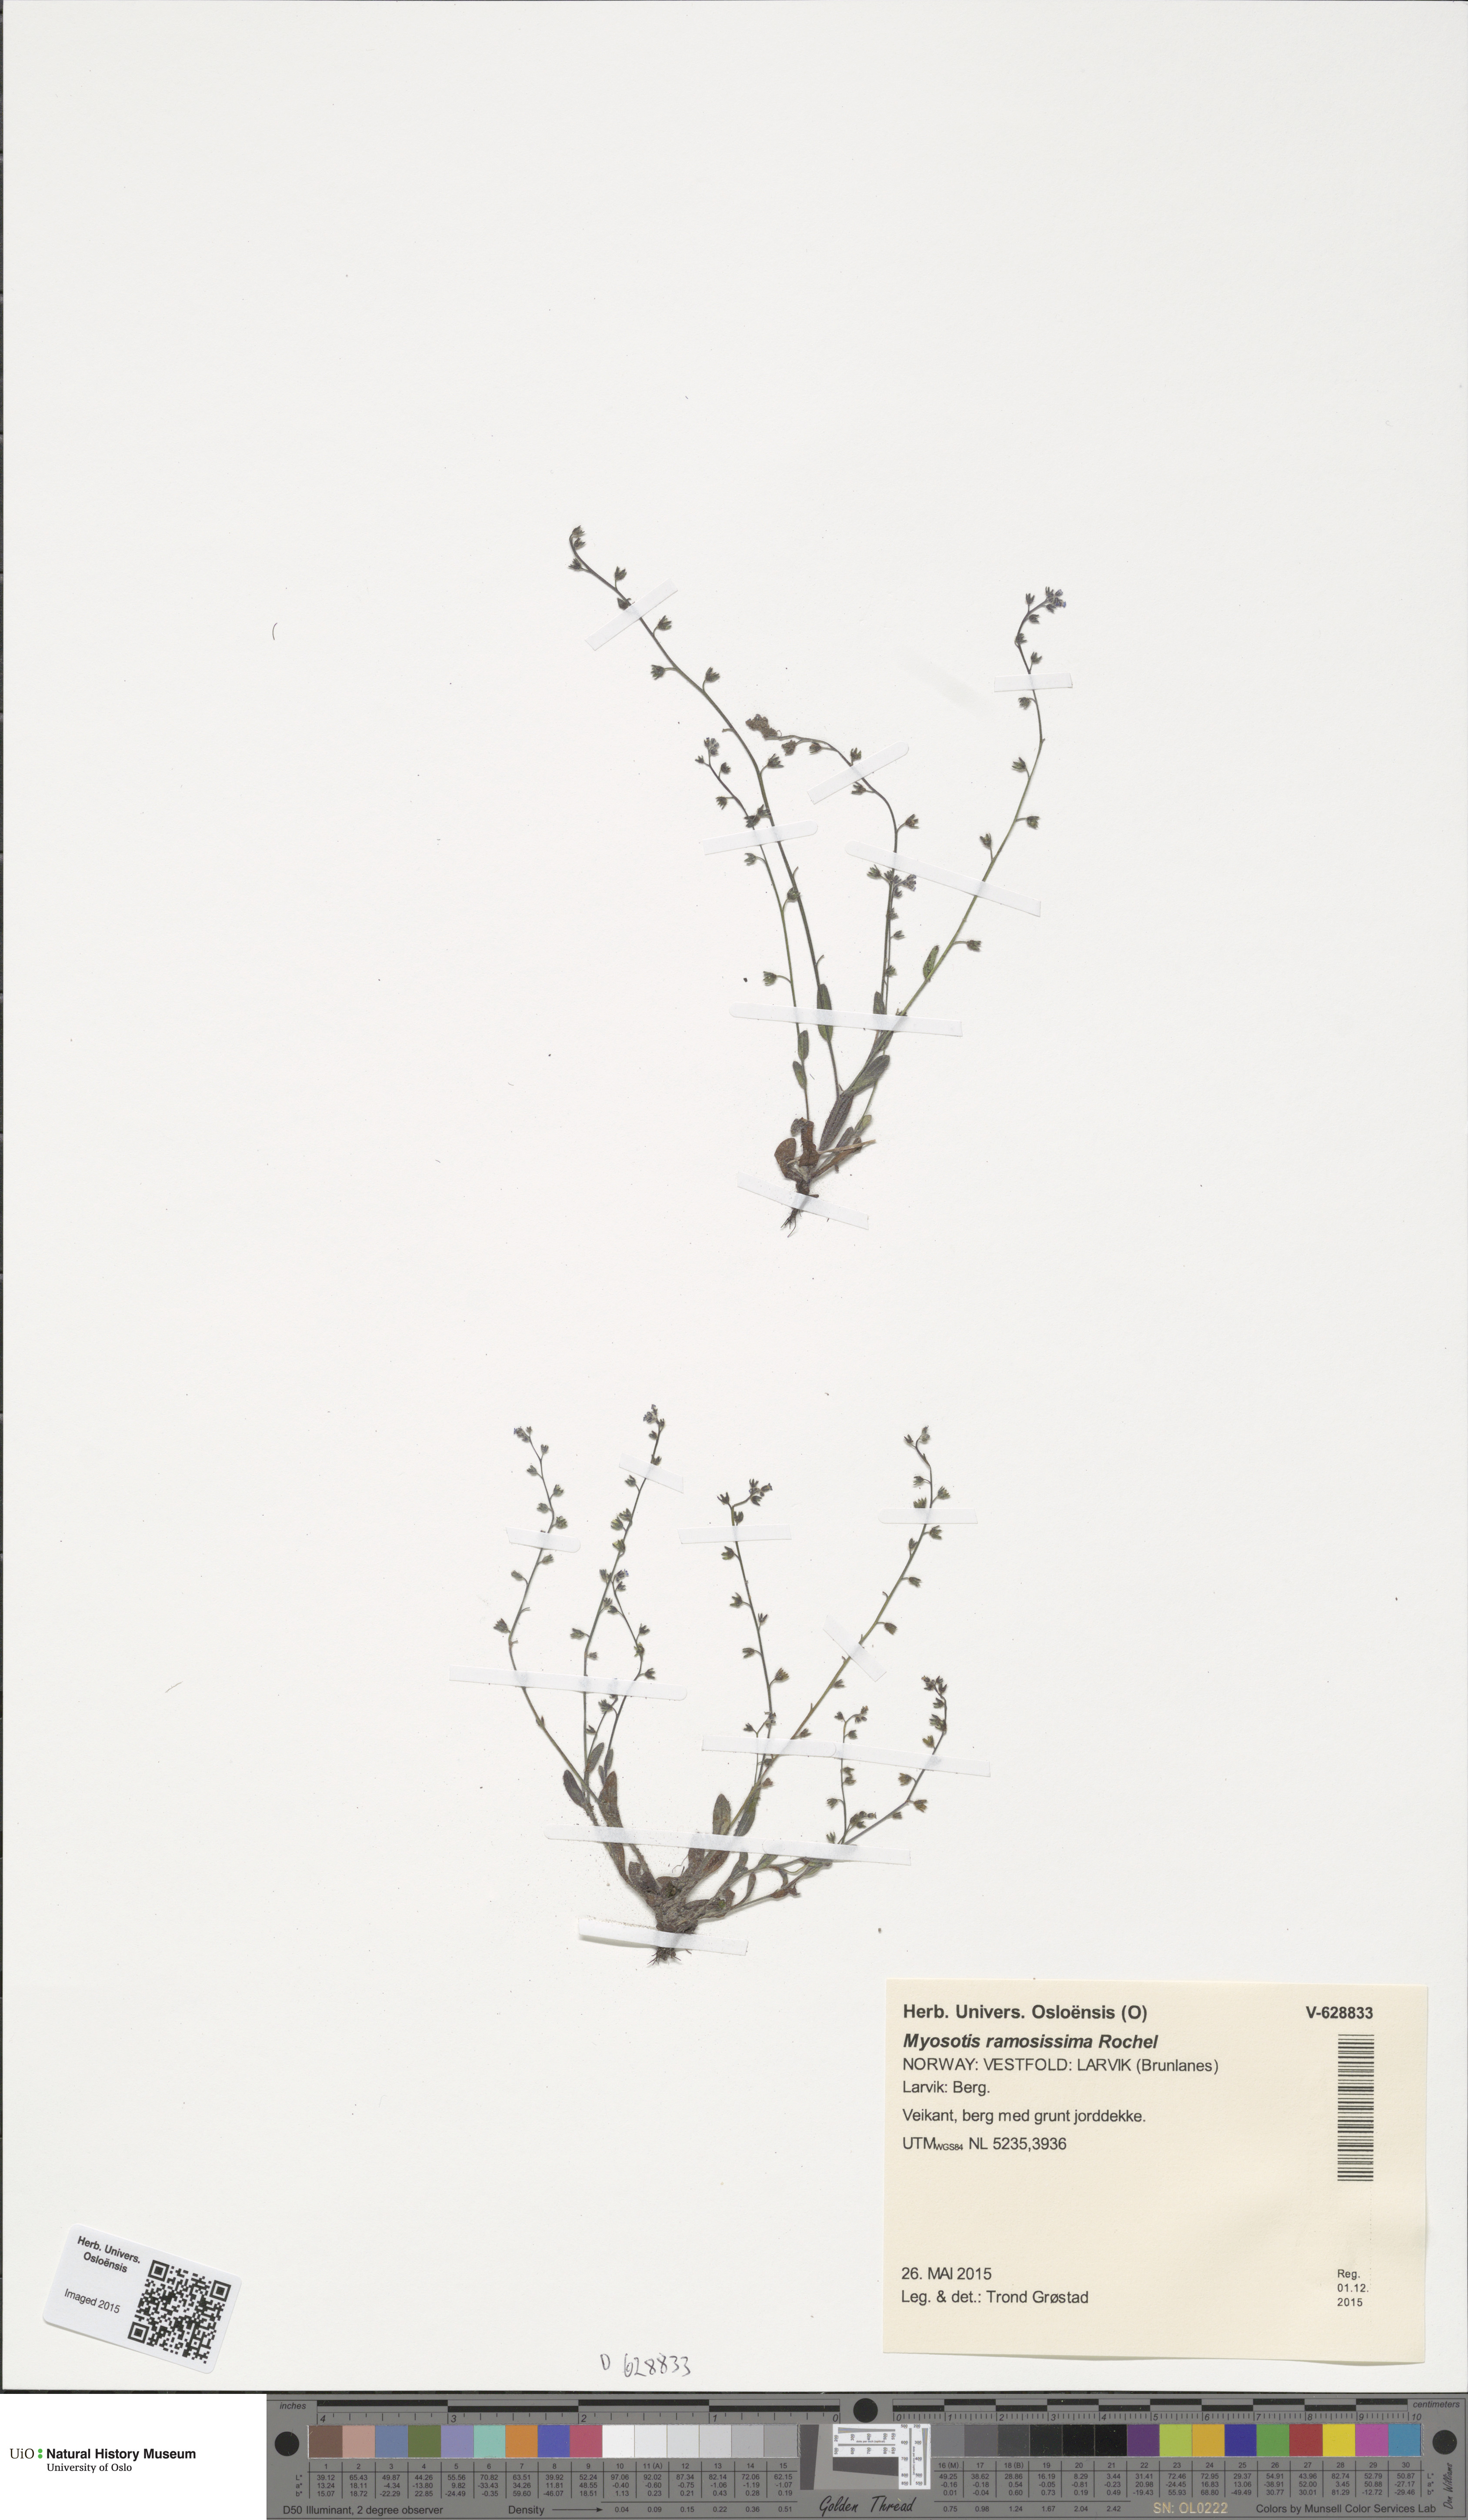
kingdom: Plantae
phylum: Tracheophyta
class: Magnoliopsida
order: Boraginales
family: Boraginaceae
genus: Myosotis
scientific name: Myosotis ramosissima
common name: Early forget-me-not
